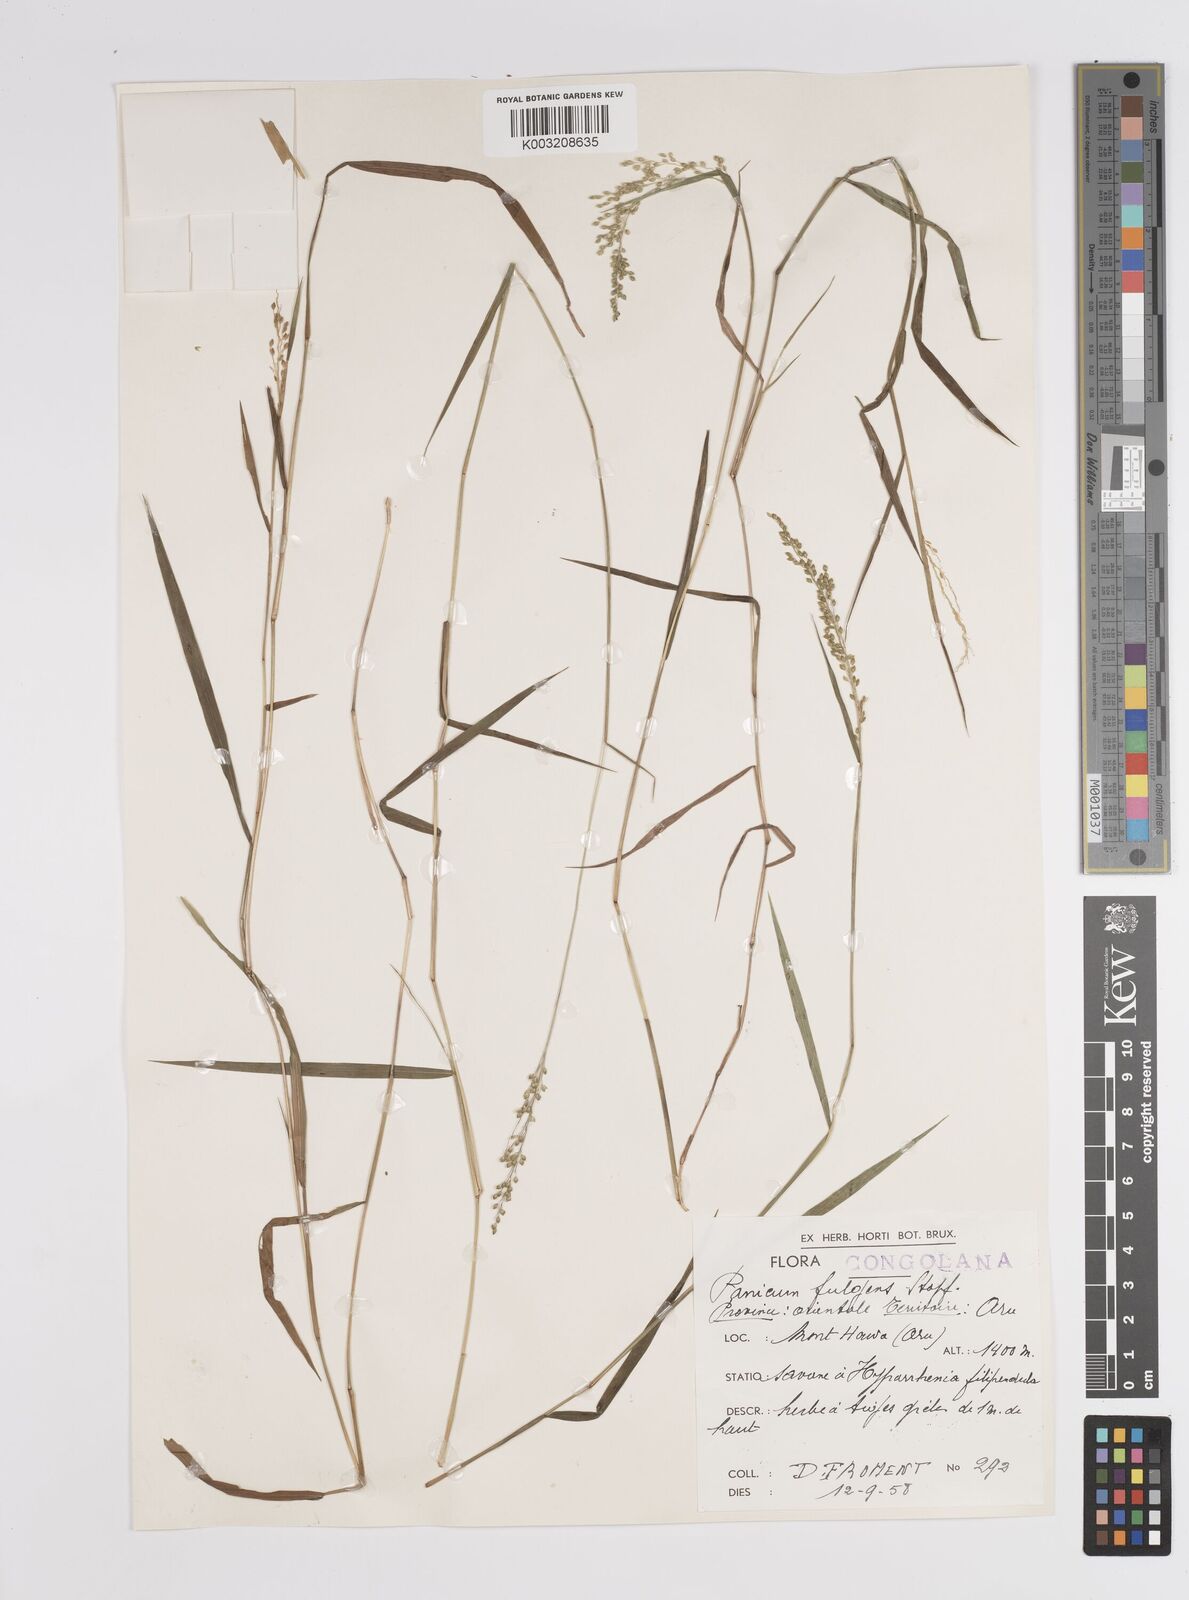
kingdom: Plantae
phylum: Tracheophyta
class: Liliopsida
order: Poales
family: Poaceae
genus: Trichanthecium
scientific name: Trichanthecium nervatum
